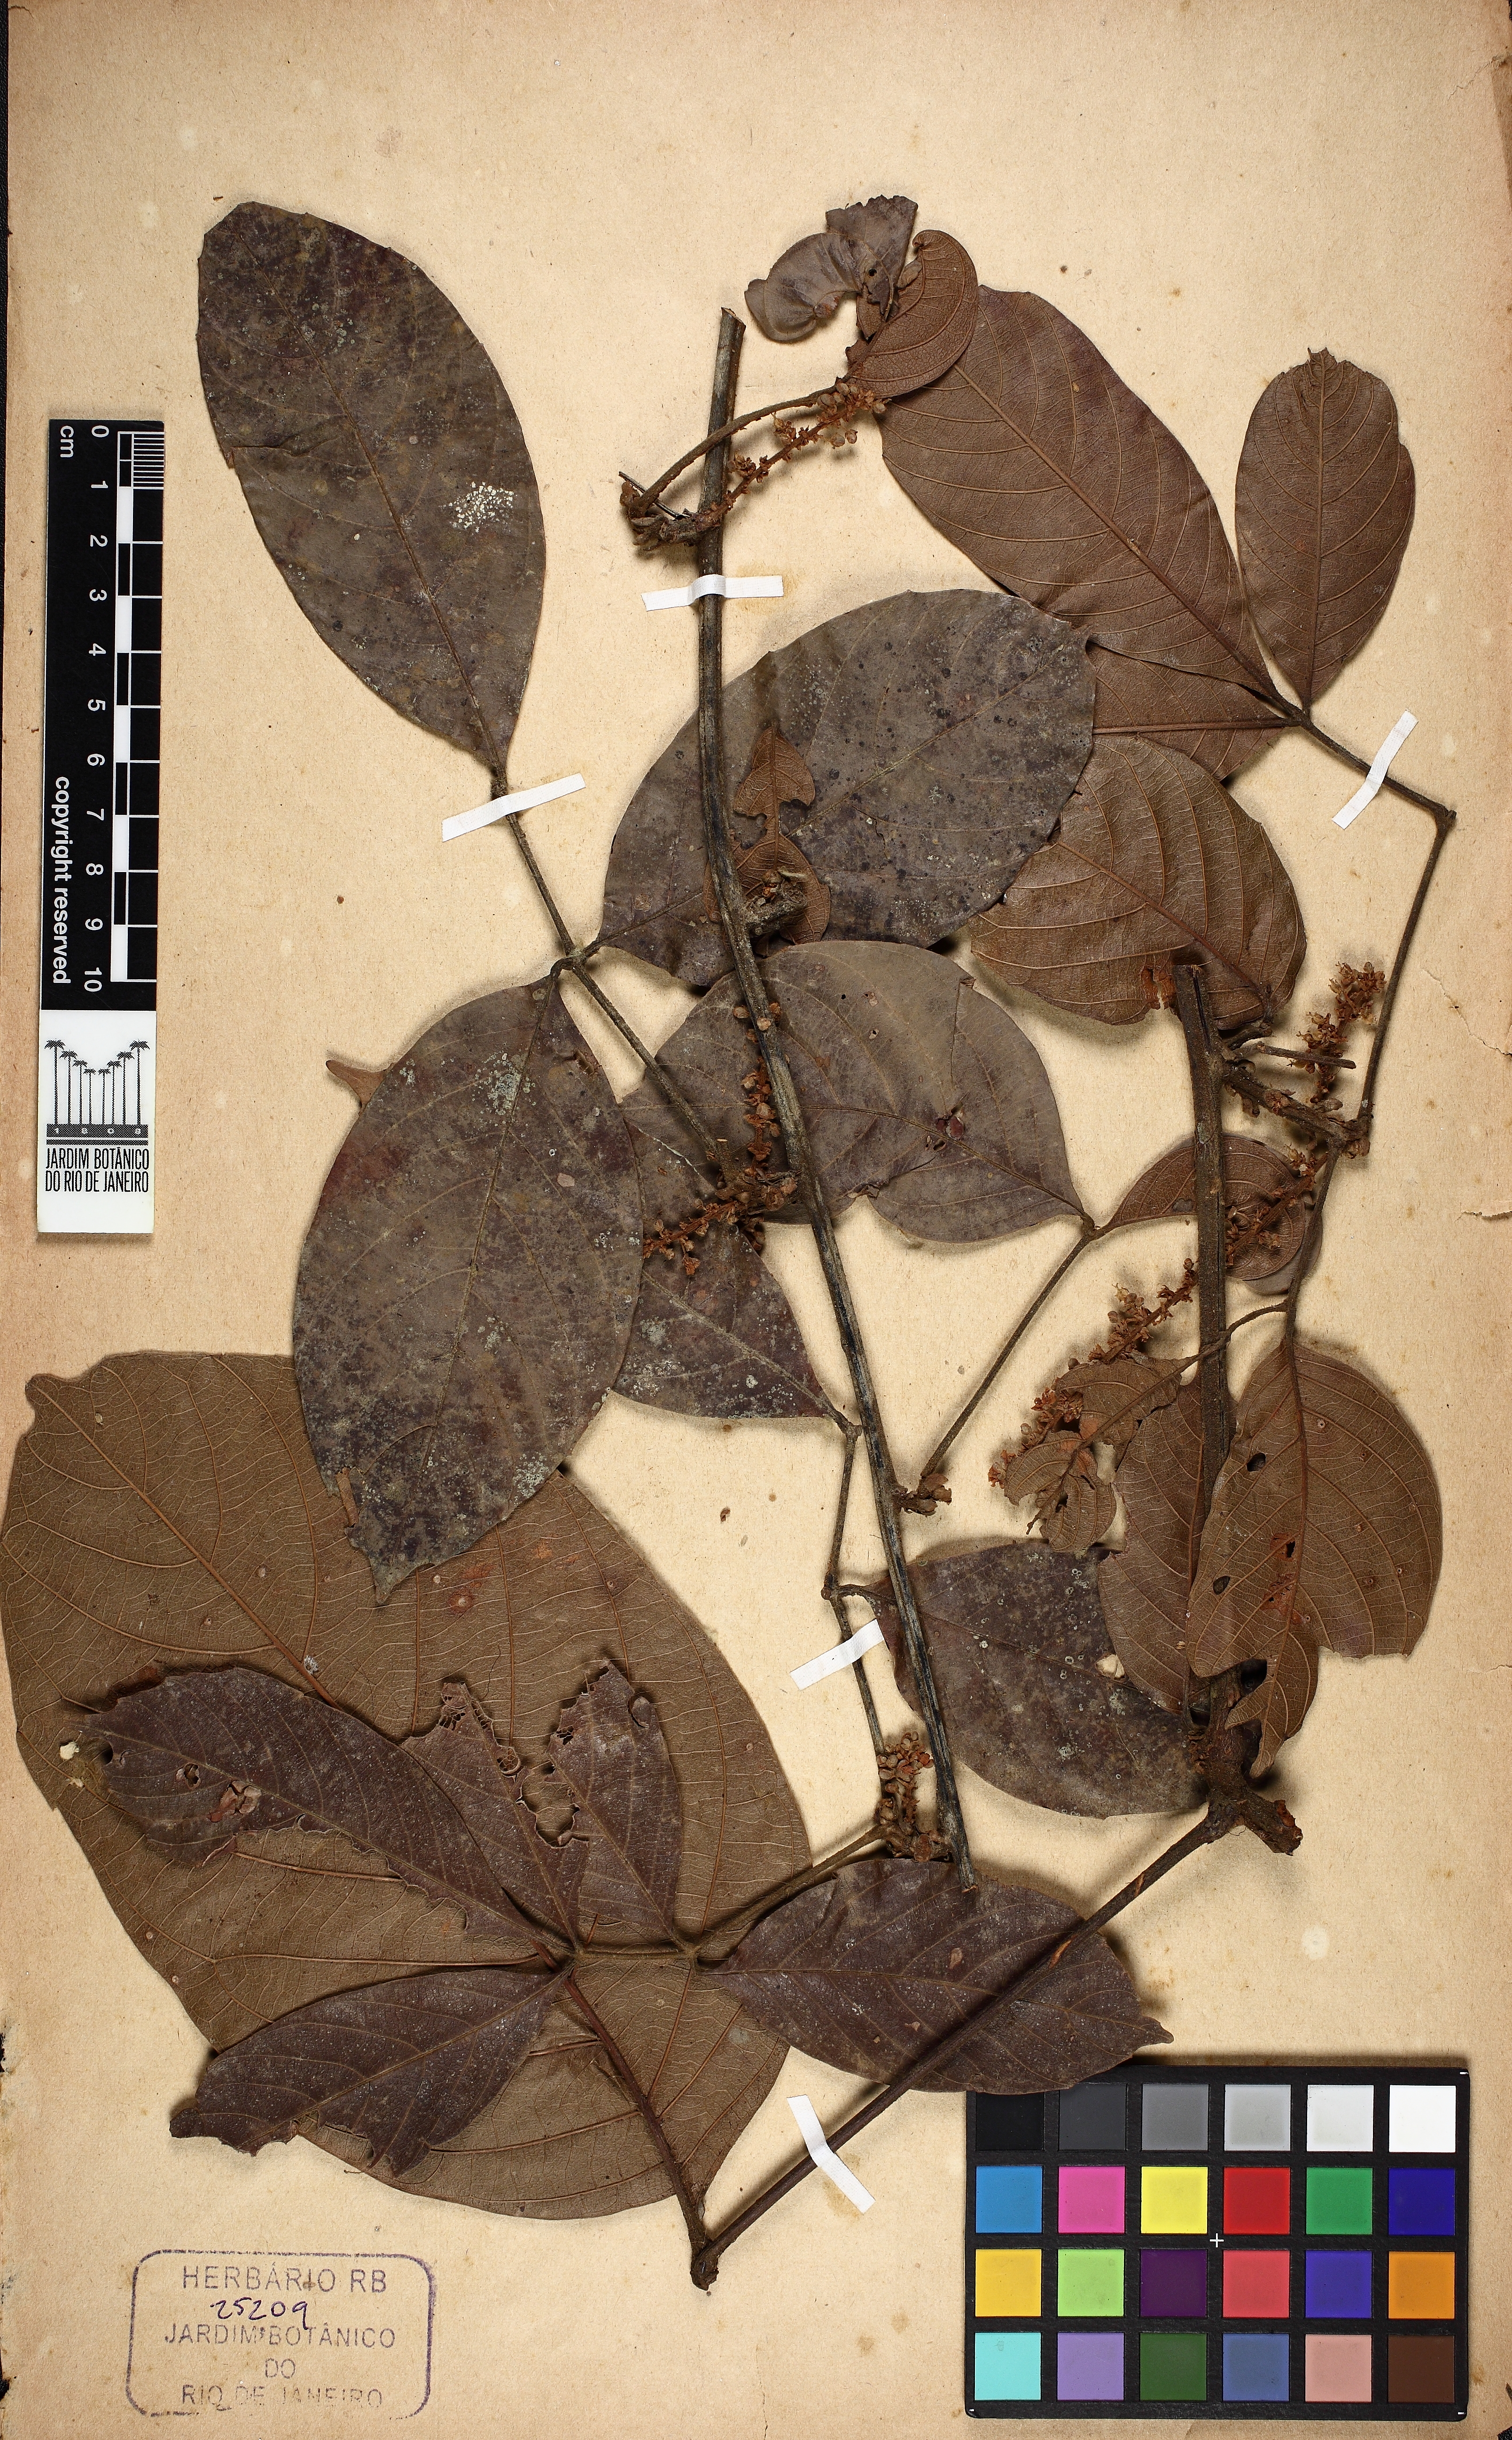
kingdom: Plantae
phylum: Tracheophyta
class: Magnoliopsida
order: Sapindales
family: Sapindaceae
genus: Paullinia
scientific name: Paullinia
